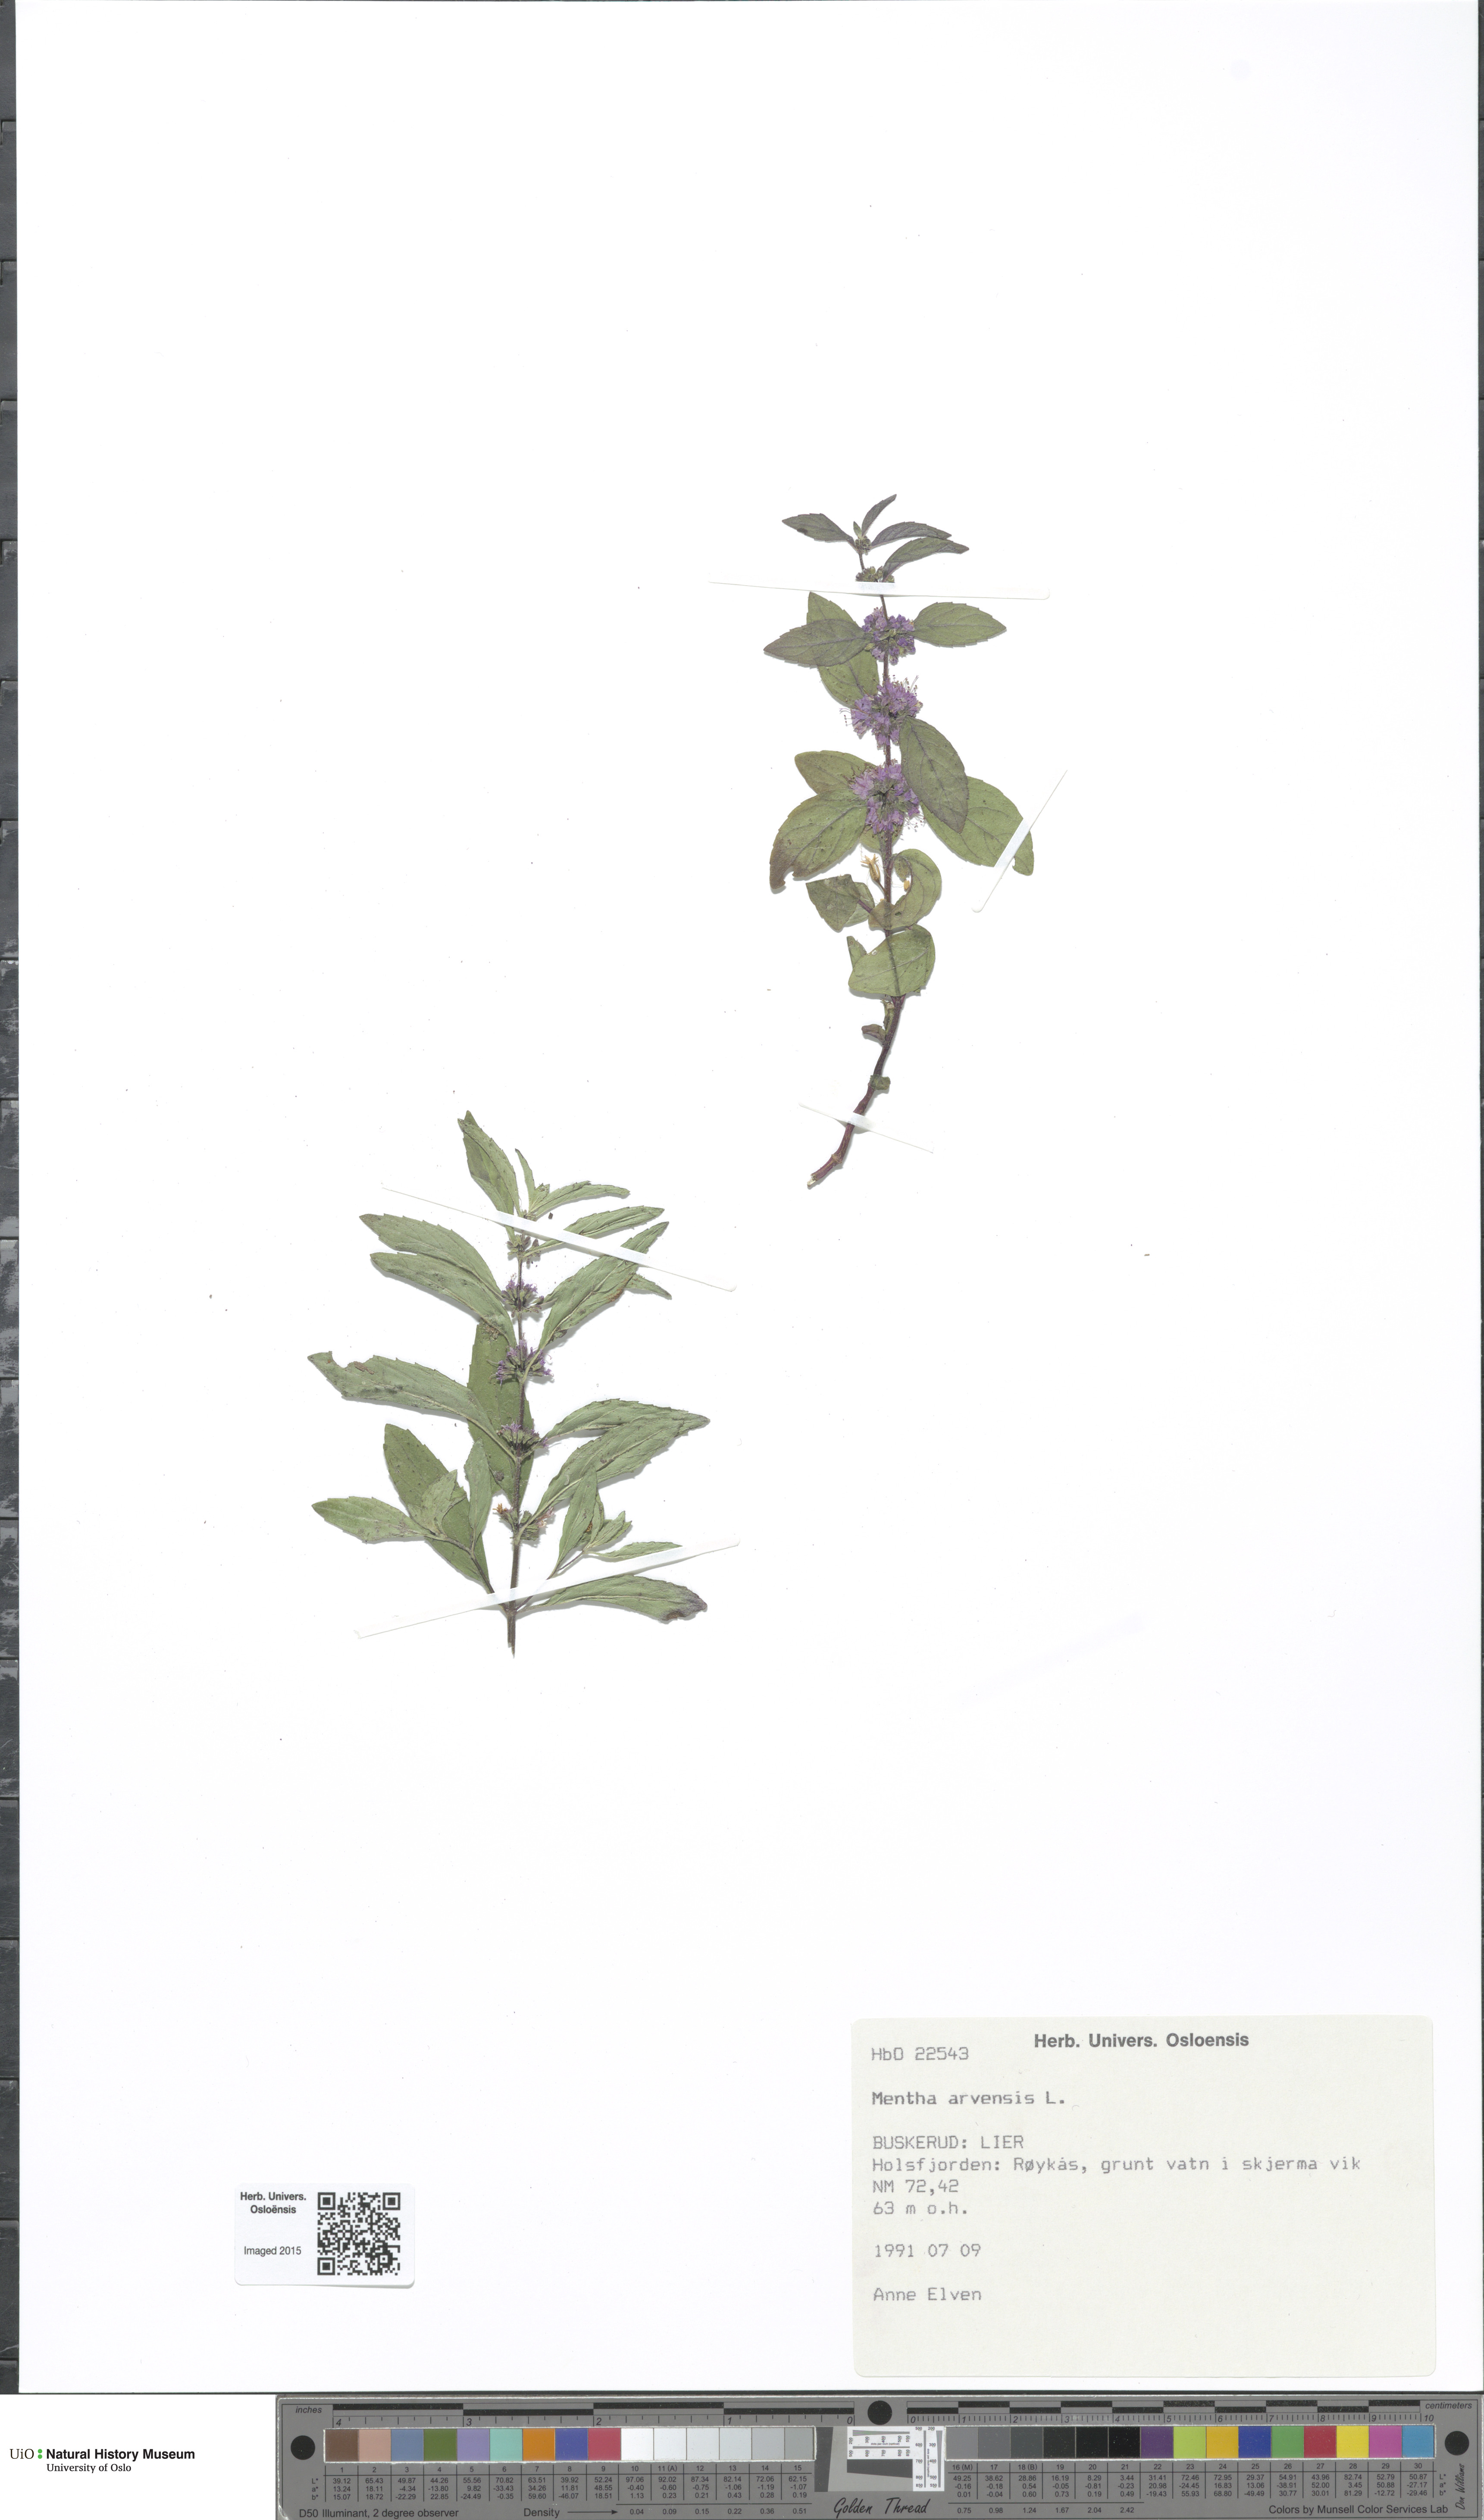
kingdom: Plantae
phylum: Tracheophyta
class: Magnoliopsida
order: Lamiales
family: Lamiaceae
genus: Mentha
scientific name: Mentha arvensis
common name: Corn mint
